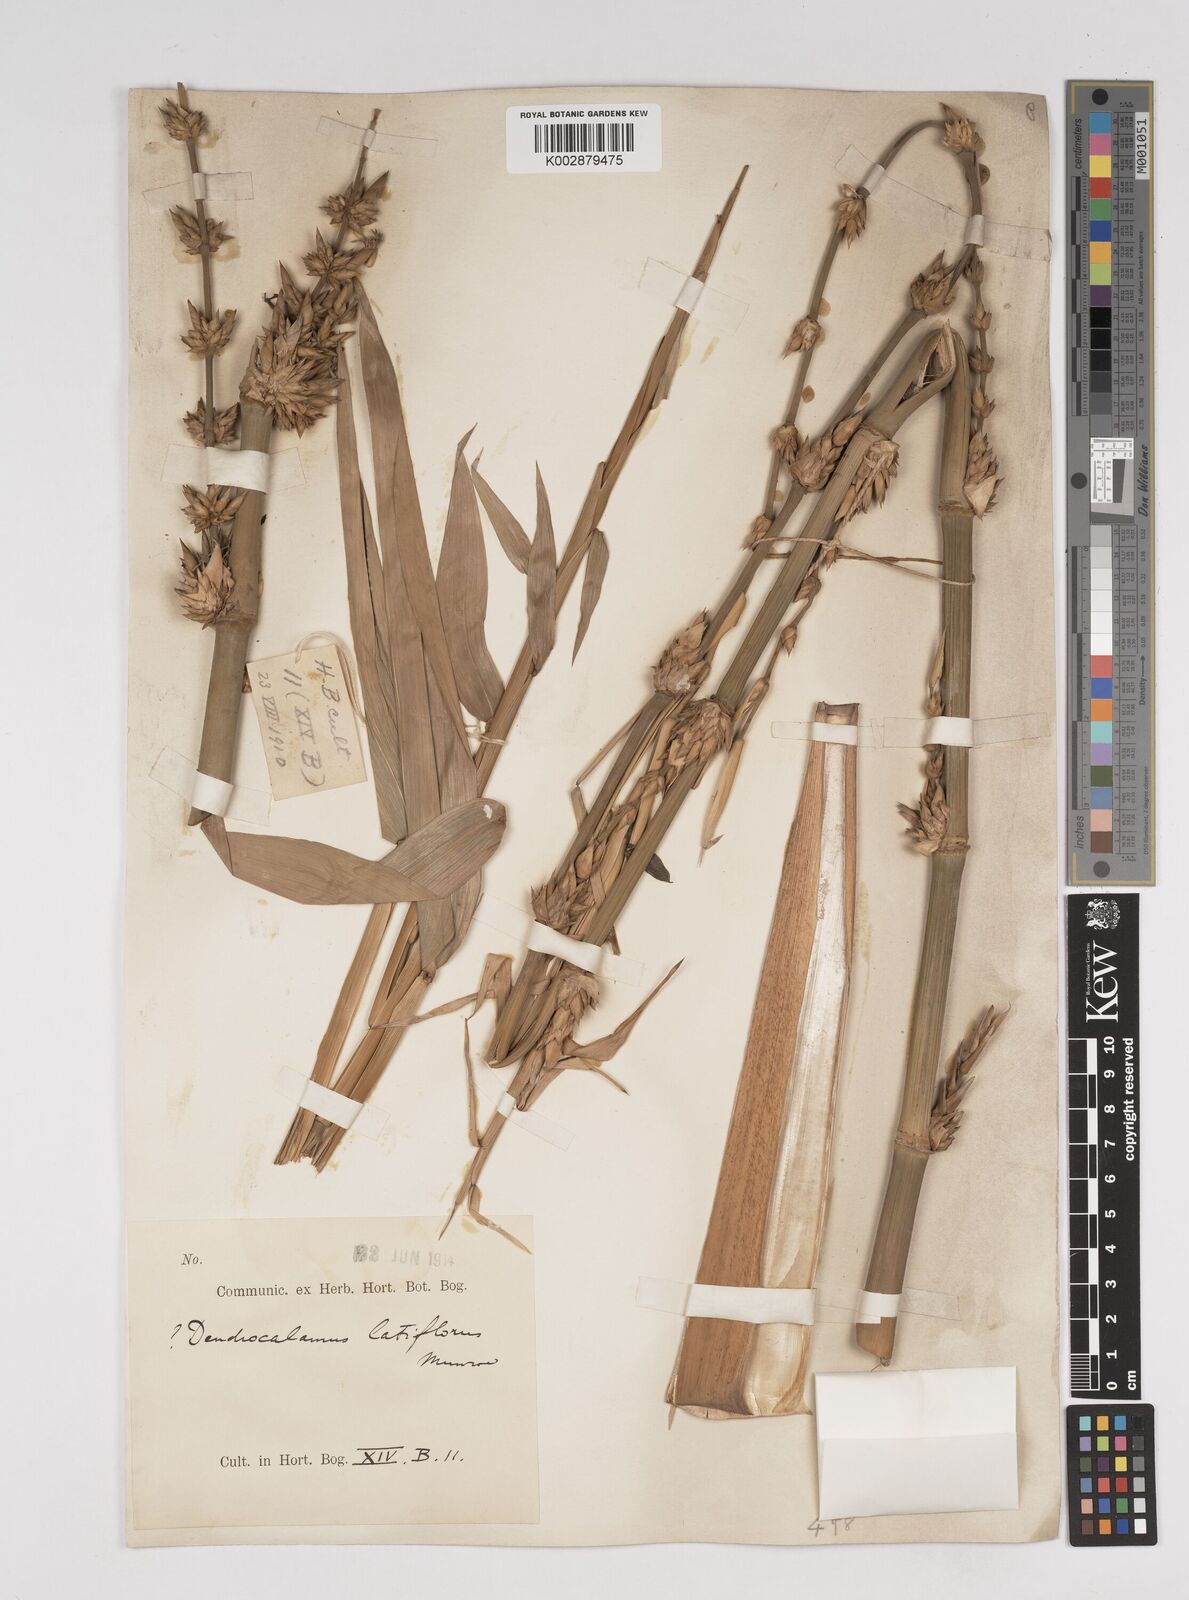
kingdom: Plantae
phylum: Tracheophyta
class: Liliopsida
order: Poales
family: Poaceae
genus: Dendrocalamus
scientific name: Dendrocalamus
